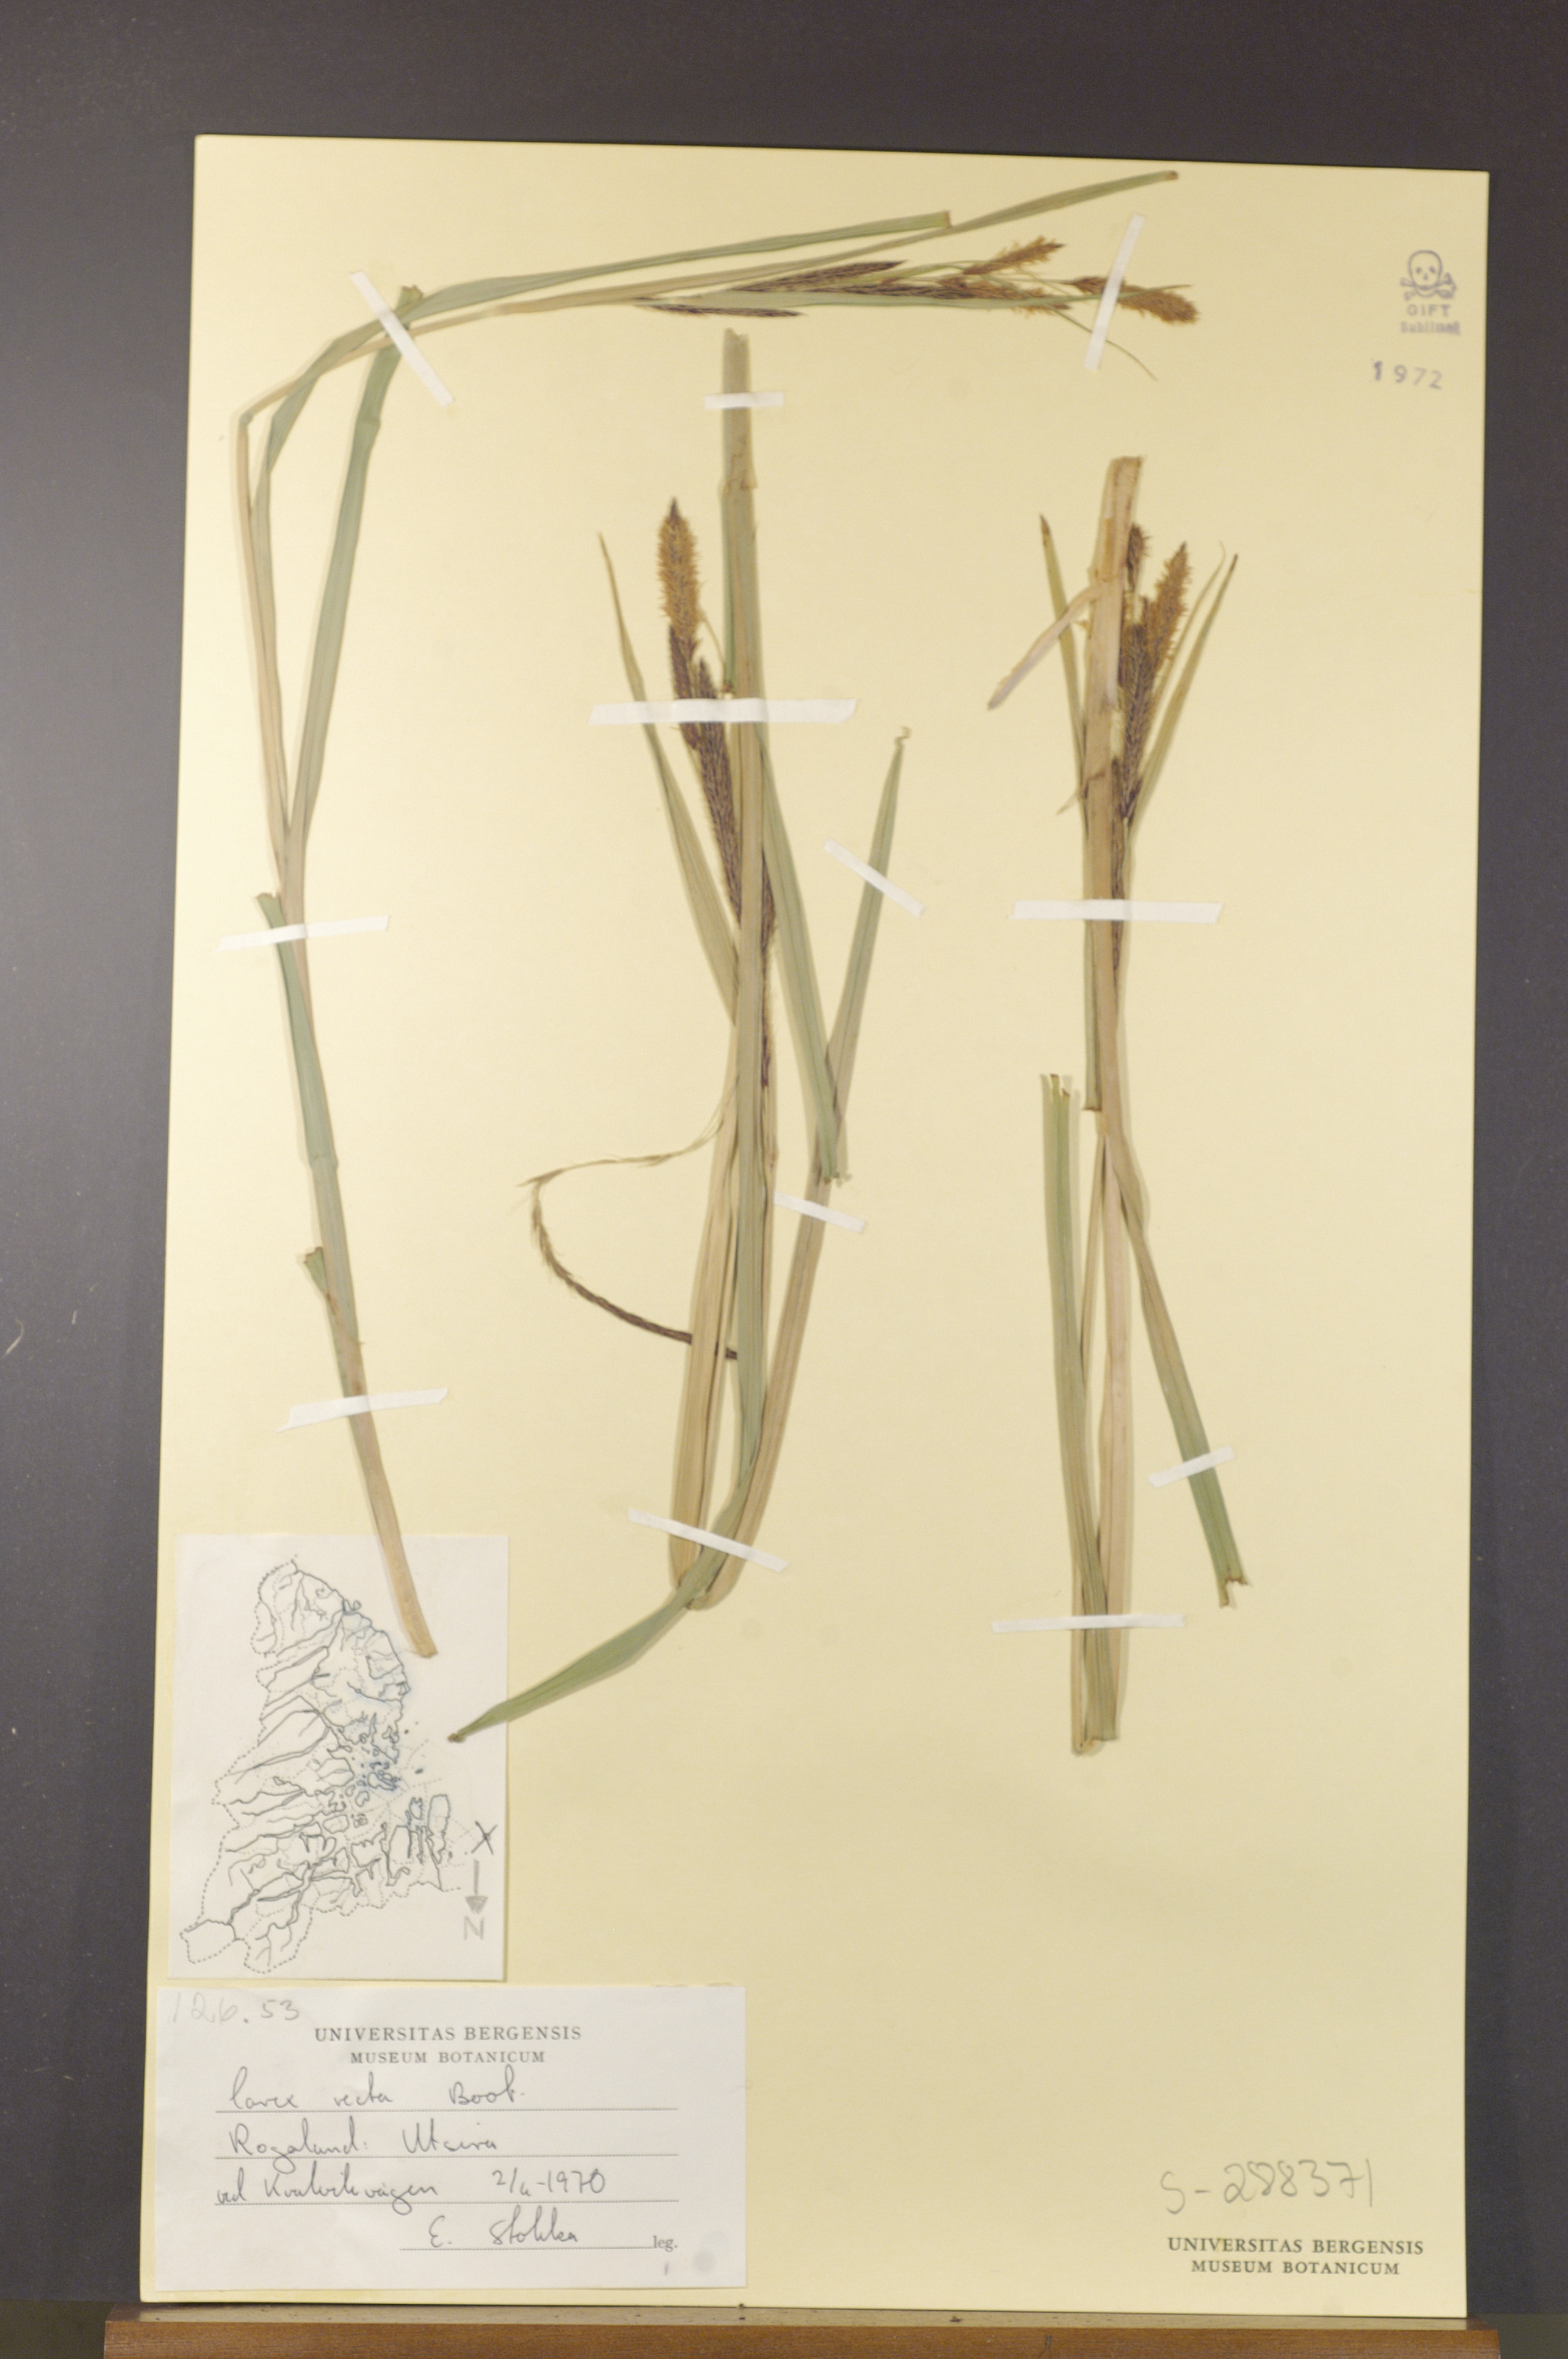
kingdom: Plantae
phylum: Tracheophyta
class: Liliopsida
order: Poales
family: Cyperaceae
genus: Carex
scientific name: Carex recta
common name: Estuarine sedge
